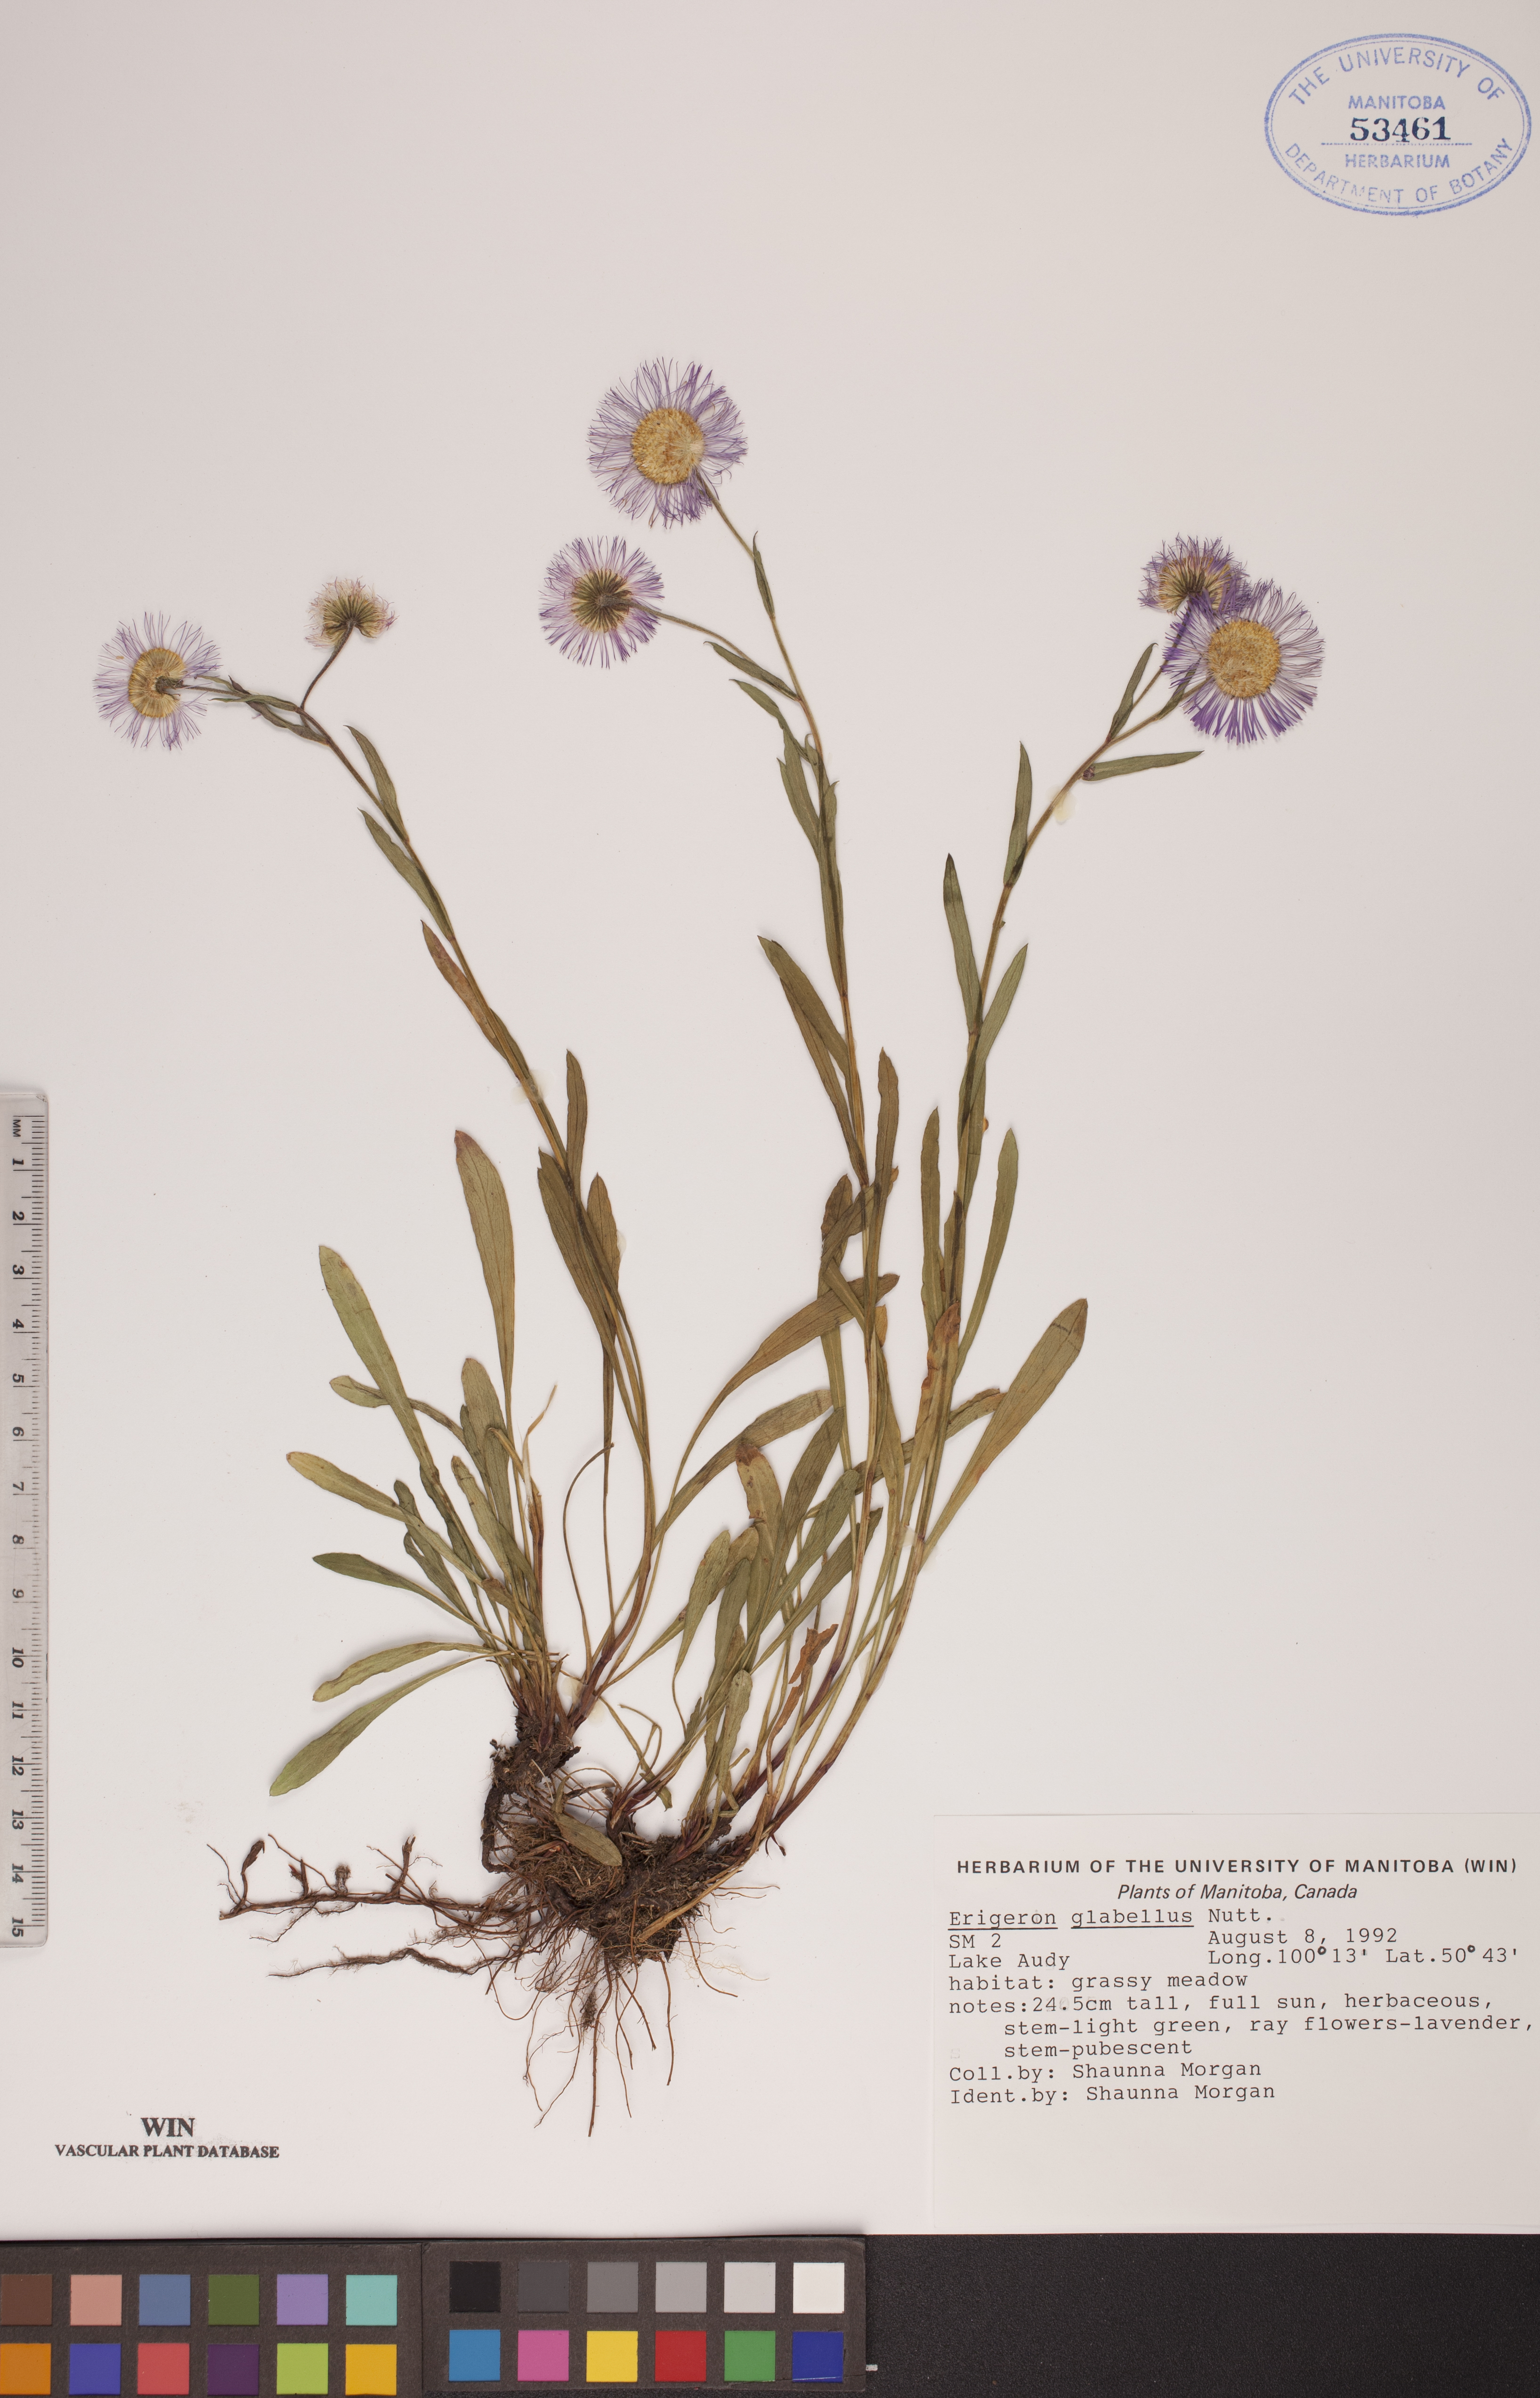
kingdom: Plantae
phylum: Tracheophyta
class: Magnoliopsida
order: Asterales
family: Asteraceae
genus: Erigeron
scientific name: Erigeron glabellus
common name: Smooth fleabane
